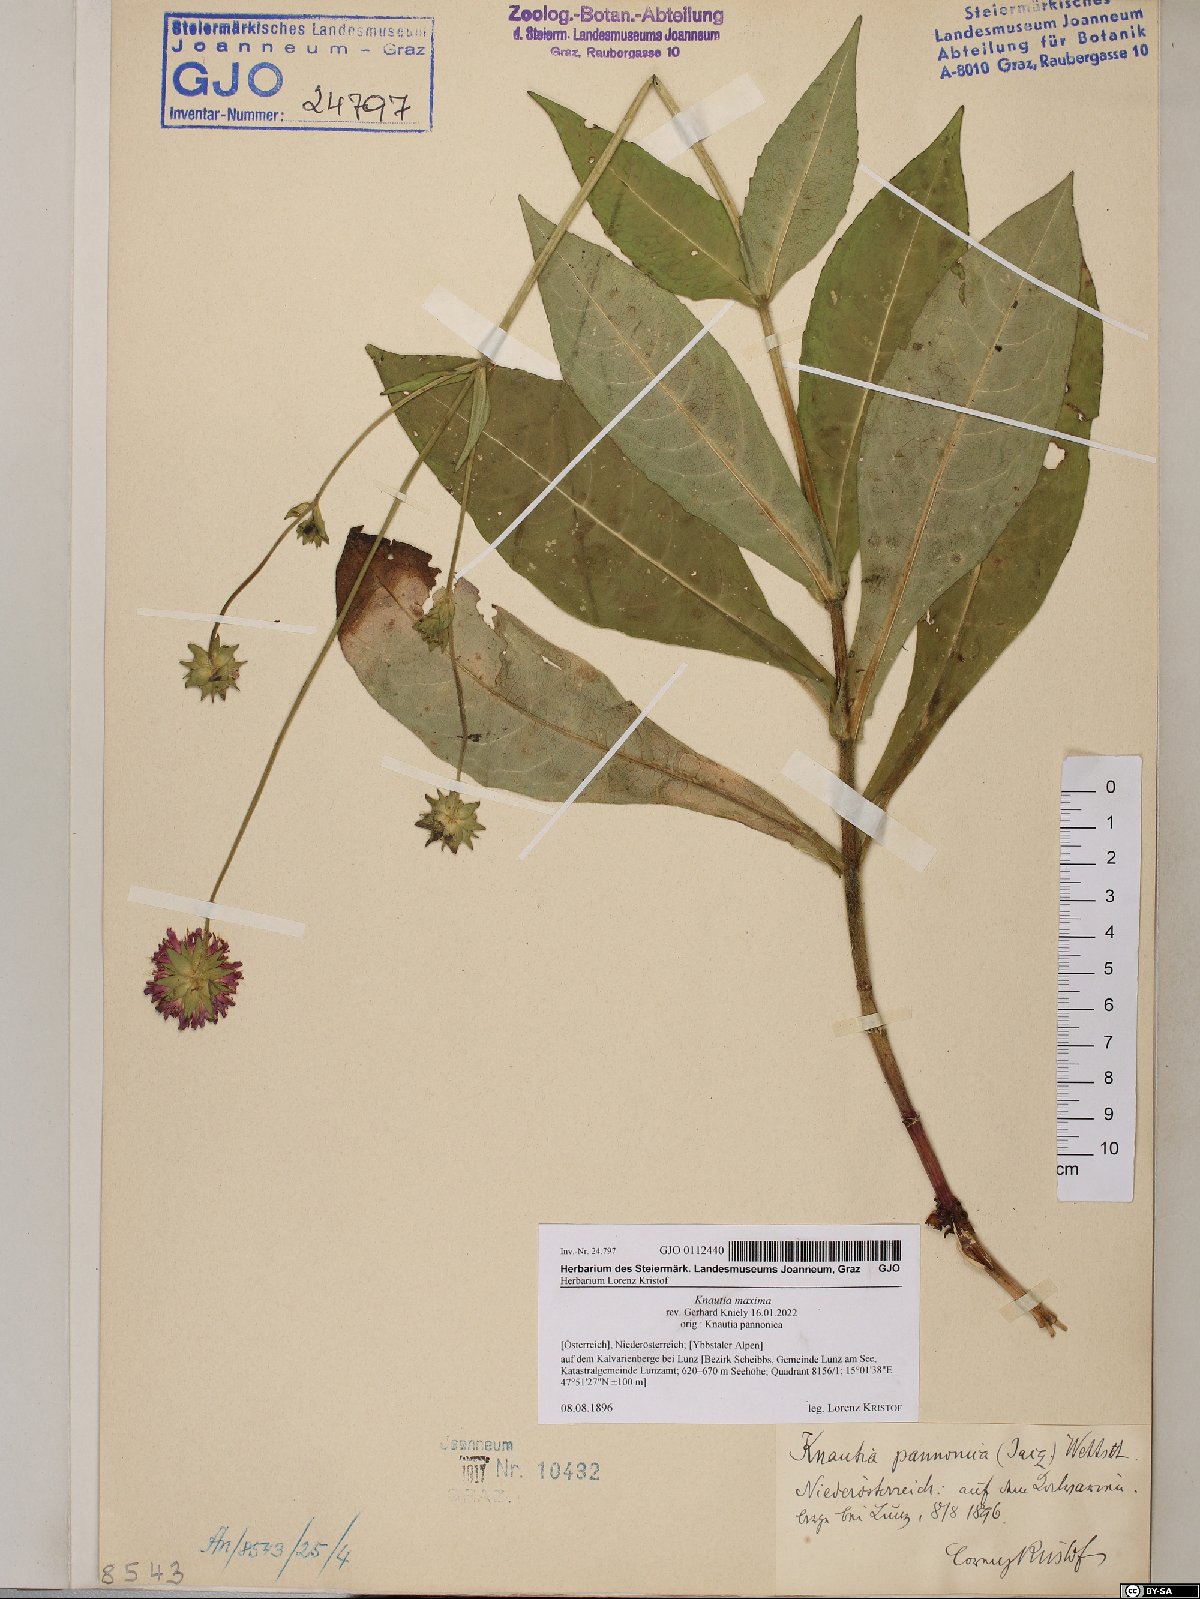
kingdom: Plantae
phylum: Tracheophyta
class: Magnoliopsida
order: Dipsacales
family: Caprifoliaceae
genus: Knautia
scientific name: Knautia dipsacifolia
